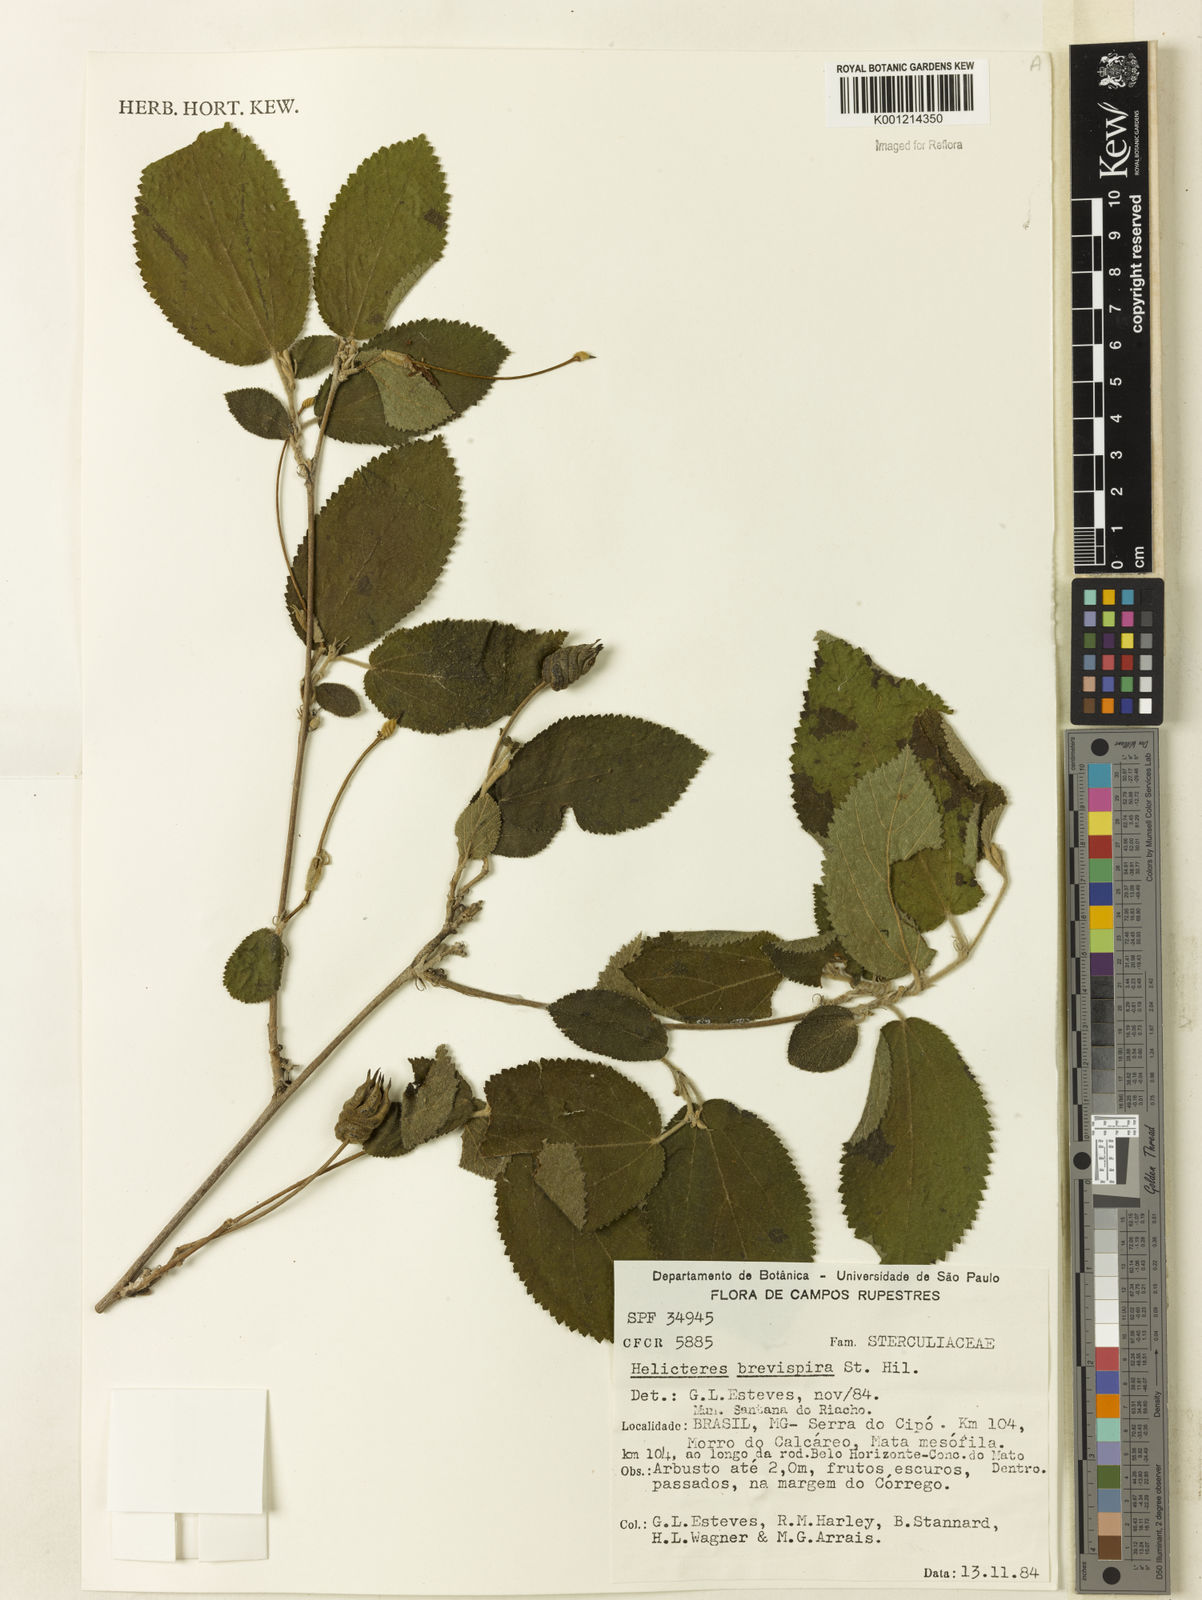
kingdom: Plantae
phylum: Tracheophyta
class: Magnoliopsida
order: Malvales
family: Malvaceae
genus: Helicteres
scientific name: Helicteres
